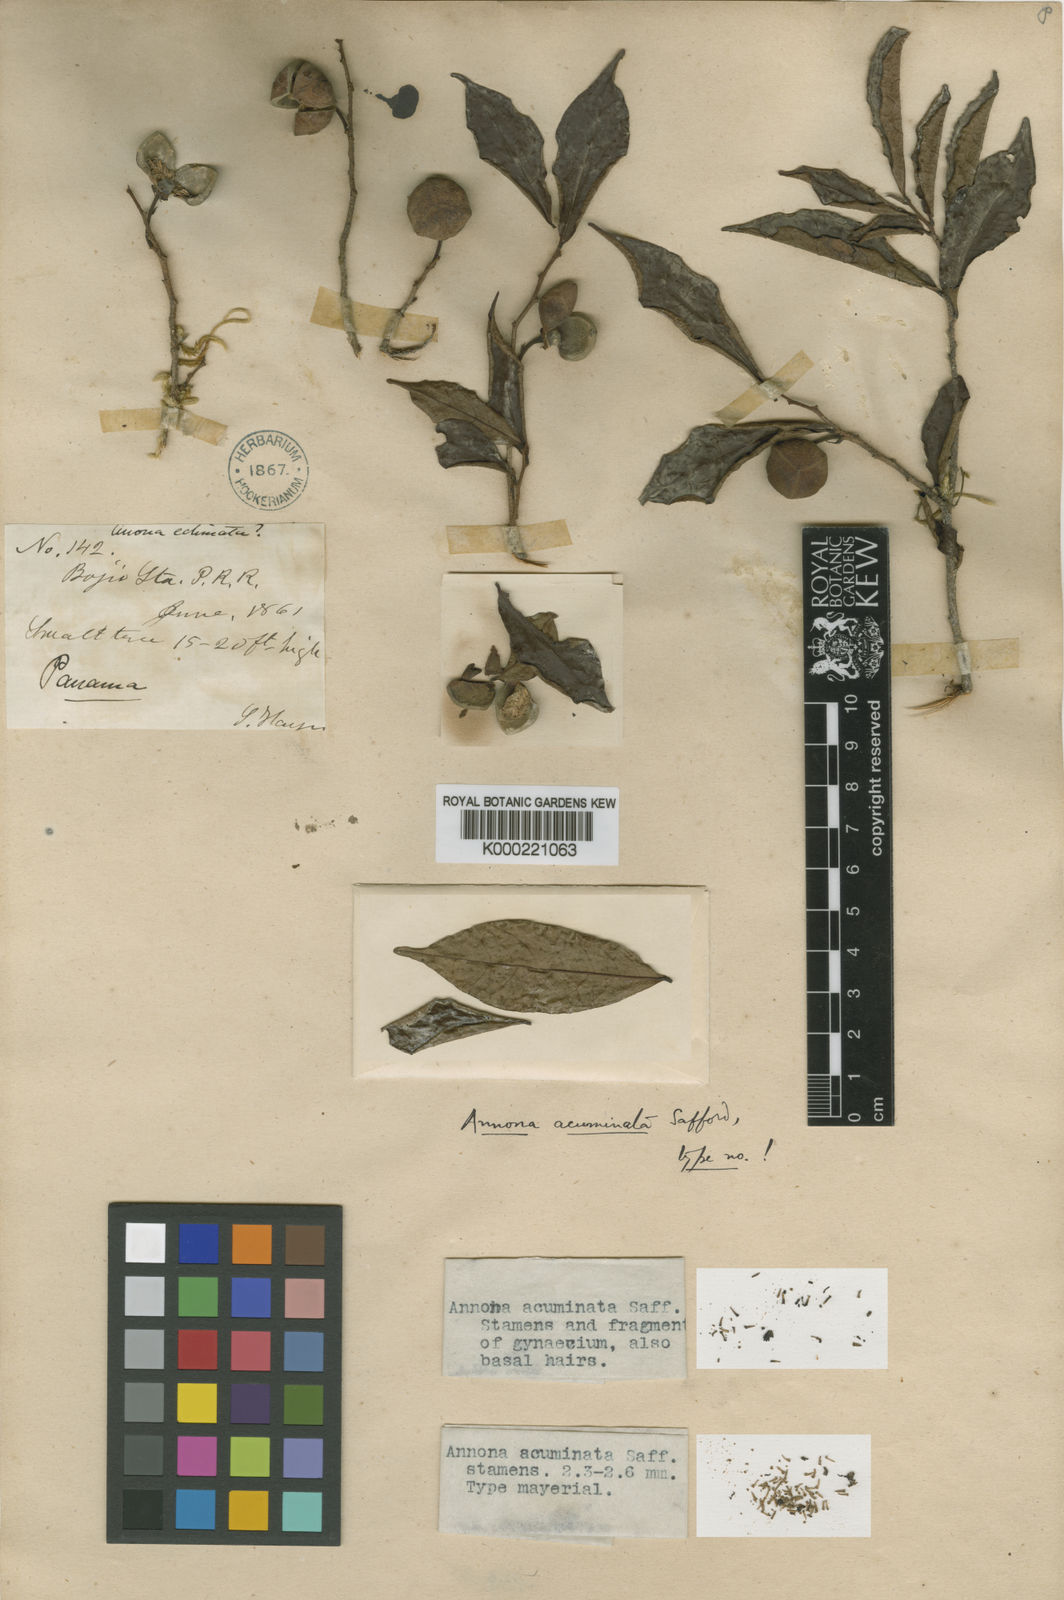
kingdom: Plantae
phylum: Tracheophyta
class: Magnoliopsida
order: Magnoliales
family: Annonaceae
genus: Annona
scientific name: Annona acuminata
